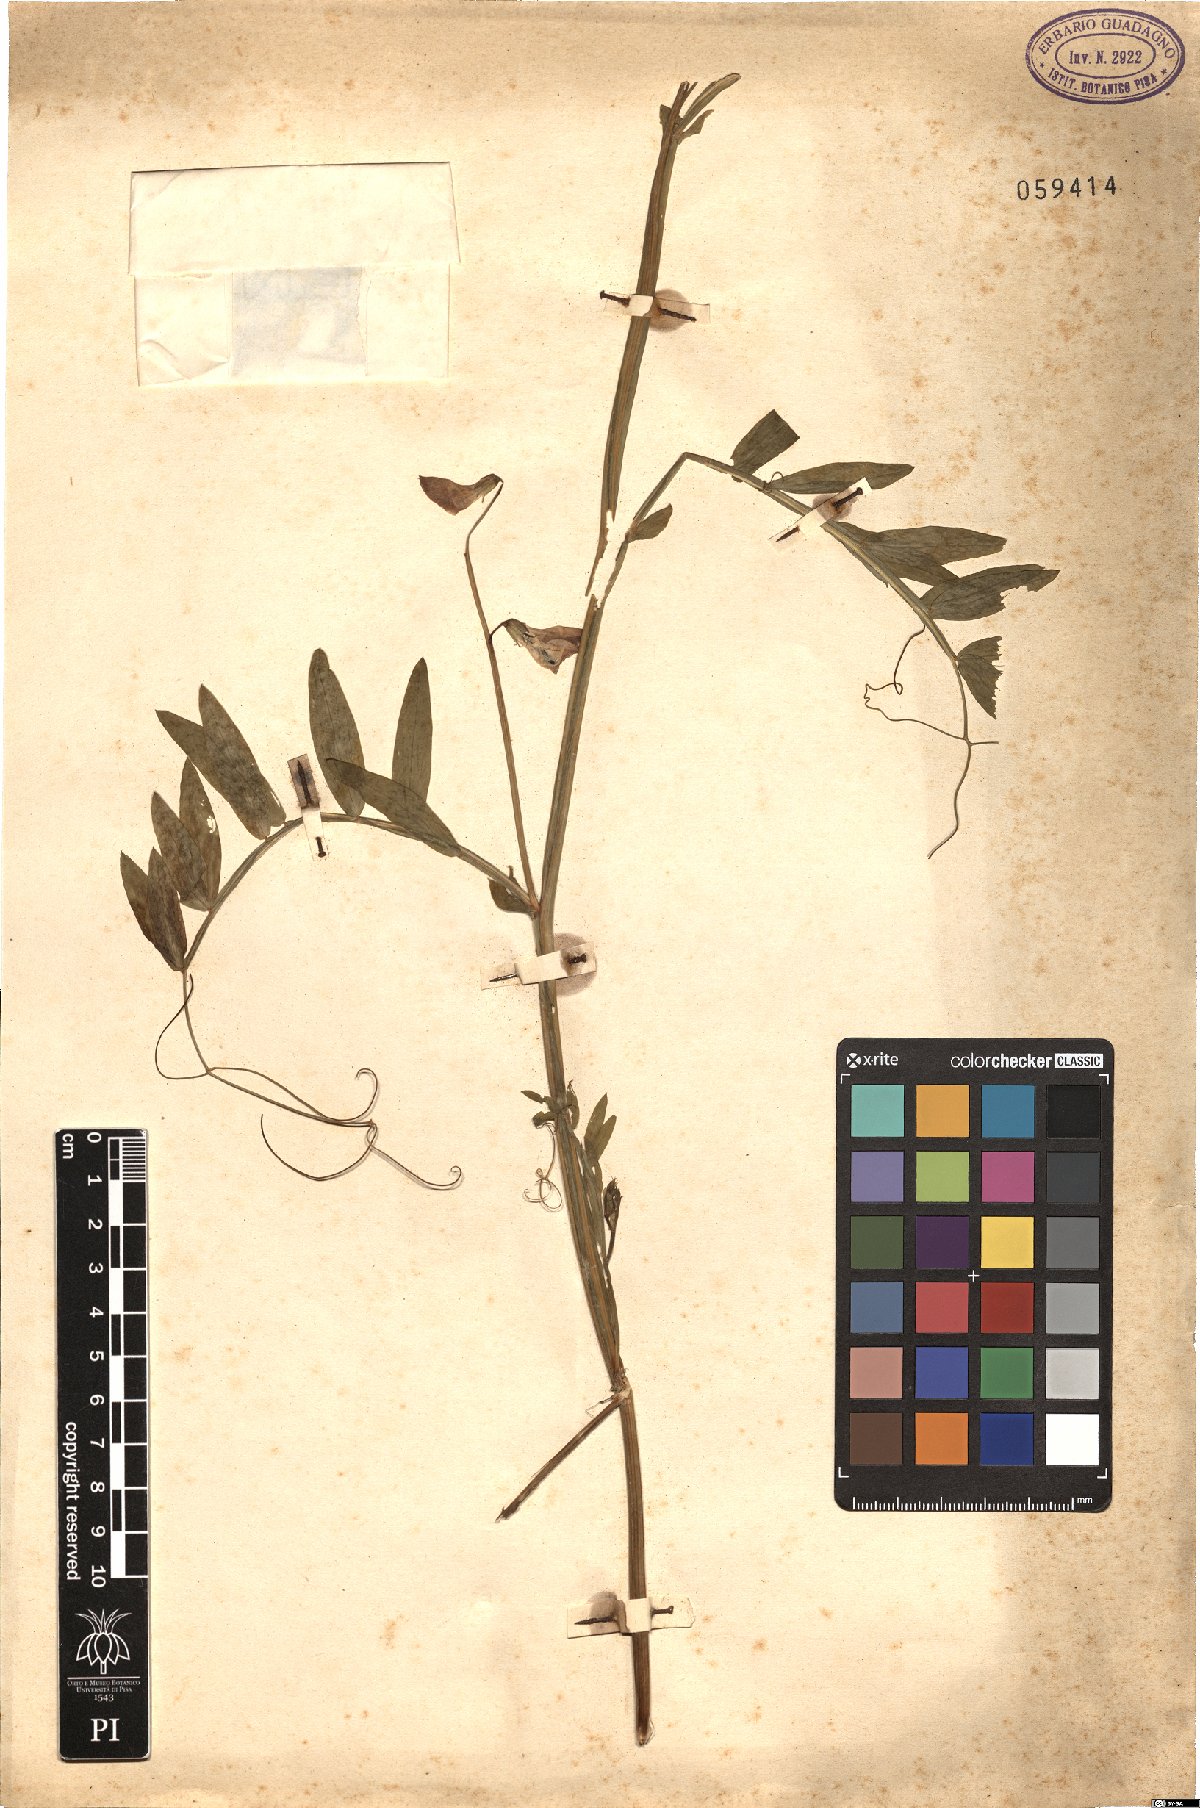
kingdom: Plantae
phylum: Tracheophyta
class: Magnoliopsida
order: Fabales
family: Fabaceae
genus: Lathyrus
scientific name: Lathyrus
